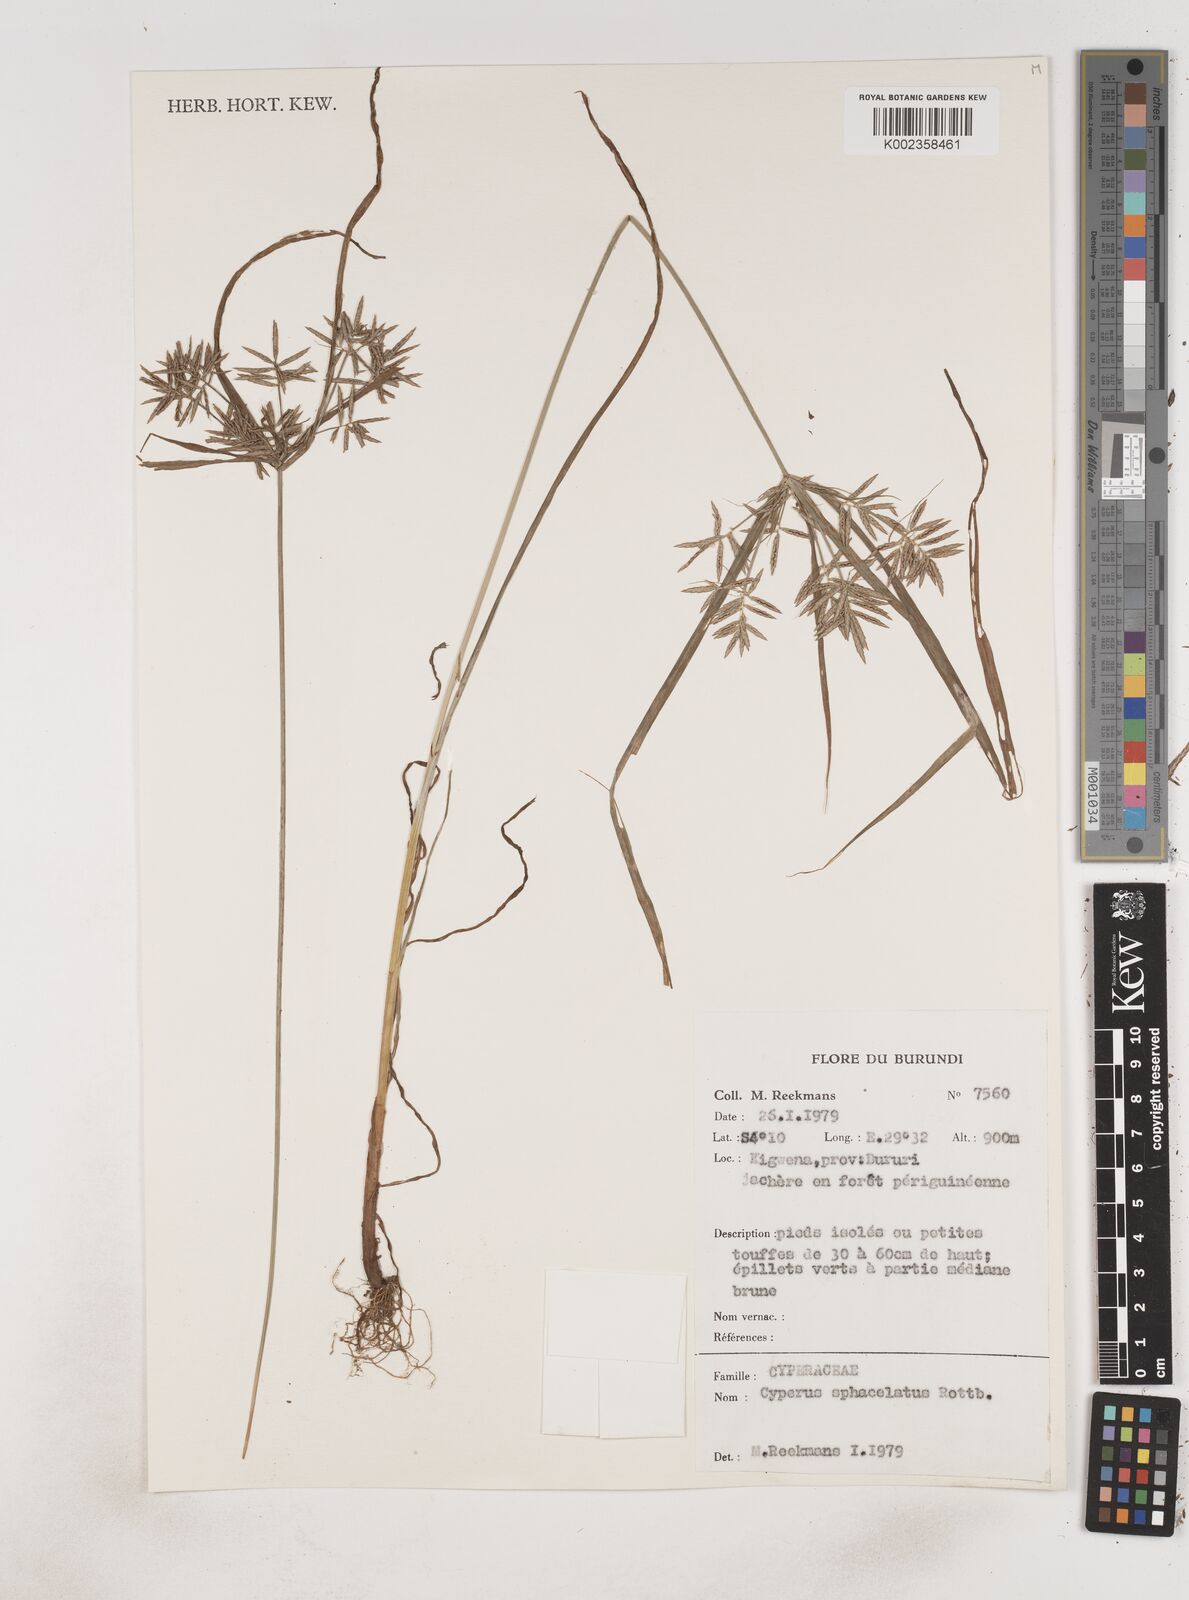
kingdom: Plantae
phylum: Tracheophyta
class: Liliopsida
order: Poales
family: Cyperaceae
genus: Cyperus
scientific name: Cyperus sphacelatus
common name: Roadside flatsedge
